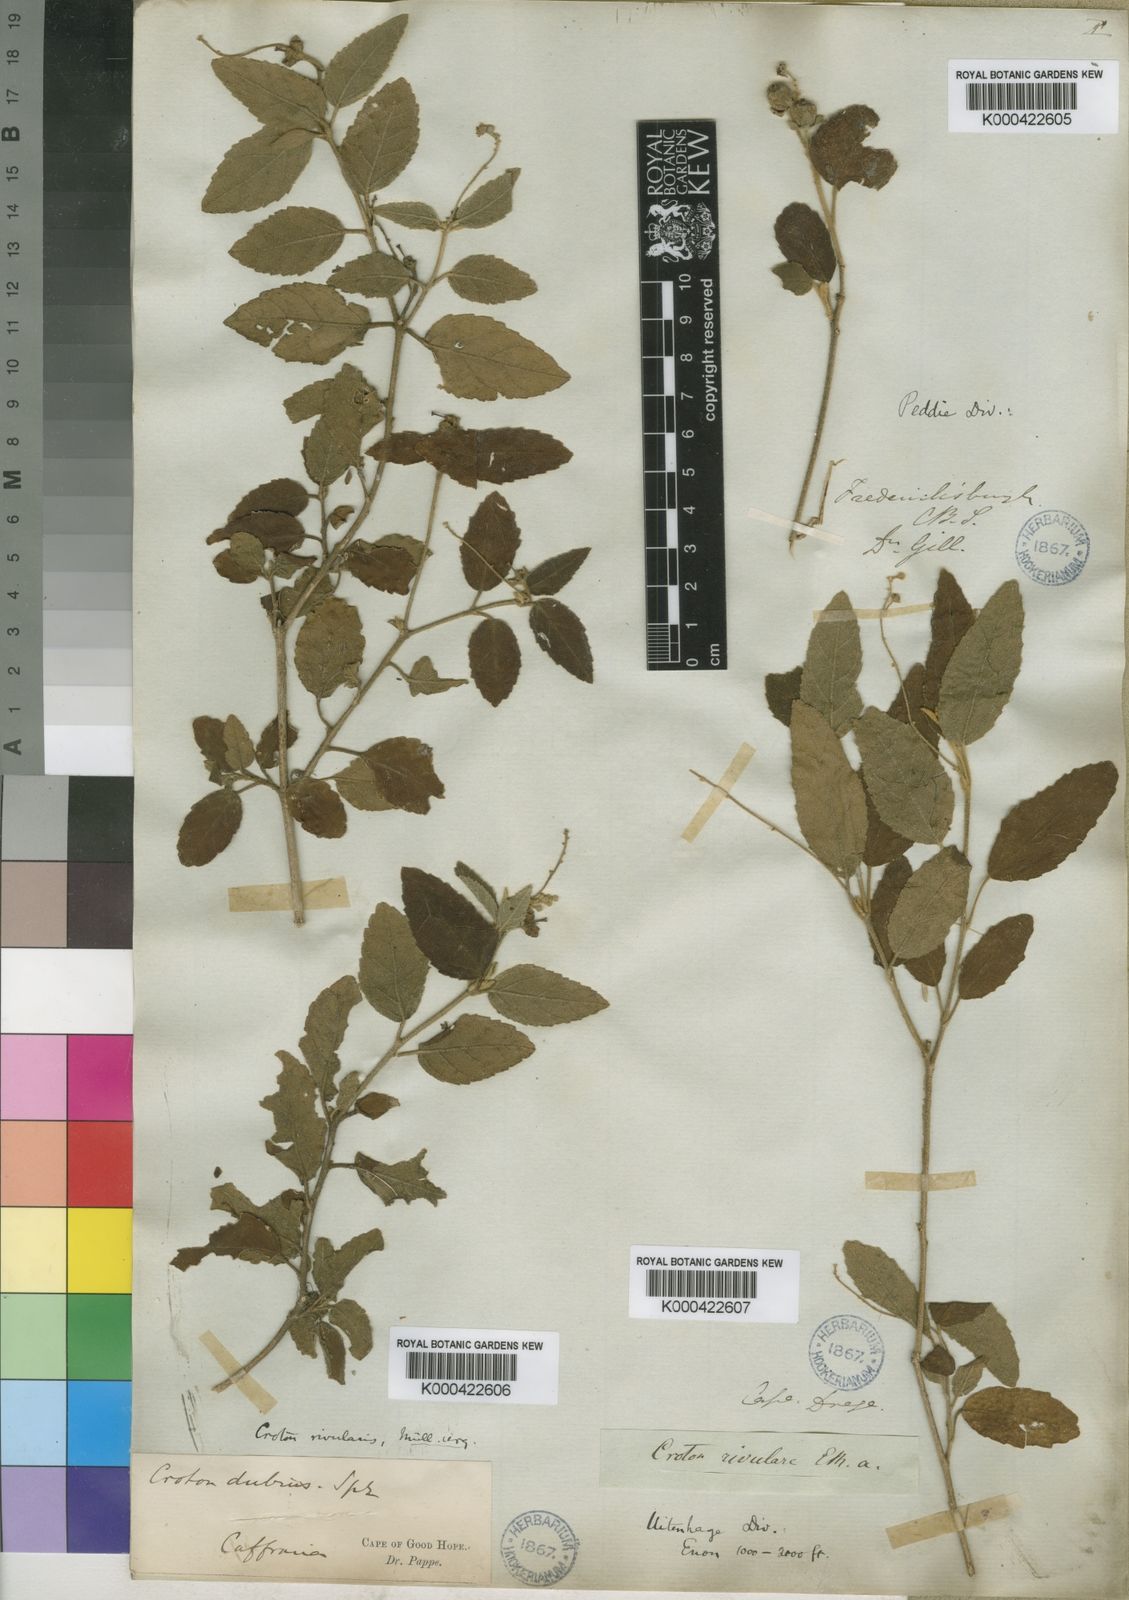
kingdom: Plantae
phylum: Tracheophyta
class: Magnoliopsida
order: Malpighiales
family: Euphorbiaceae
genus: Croton
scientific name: Croton
